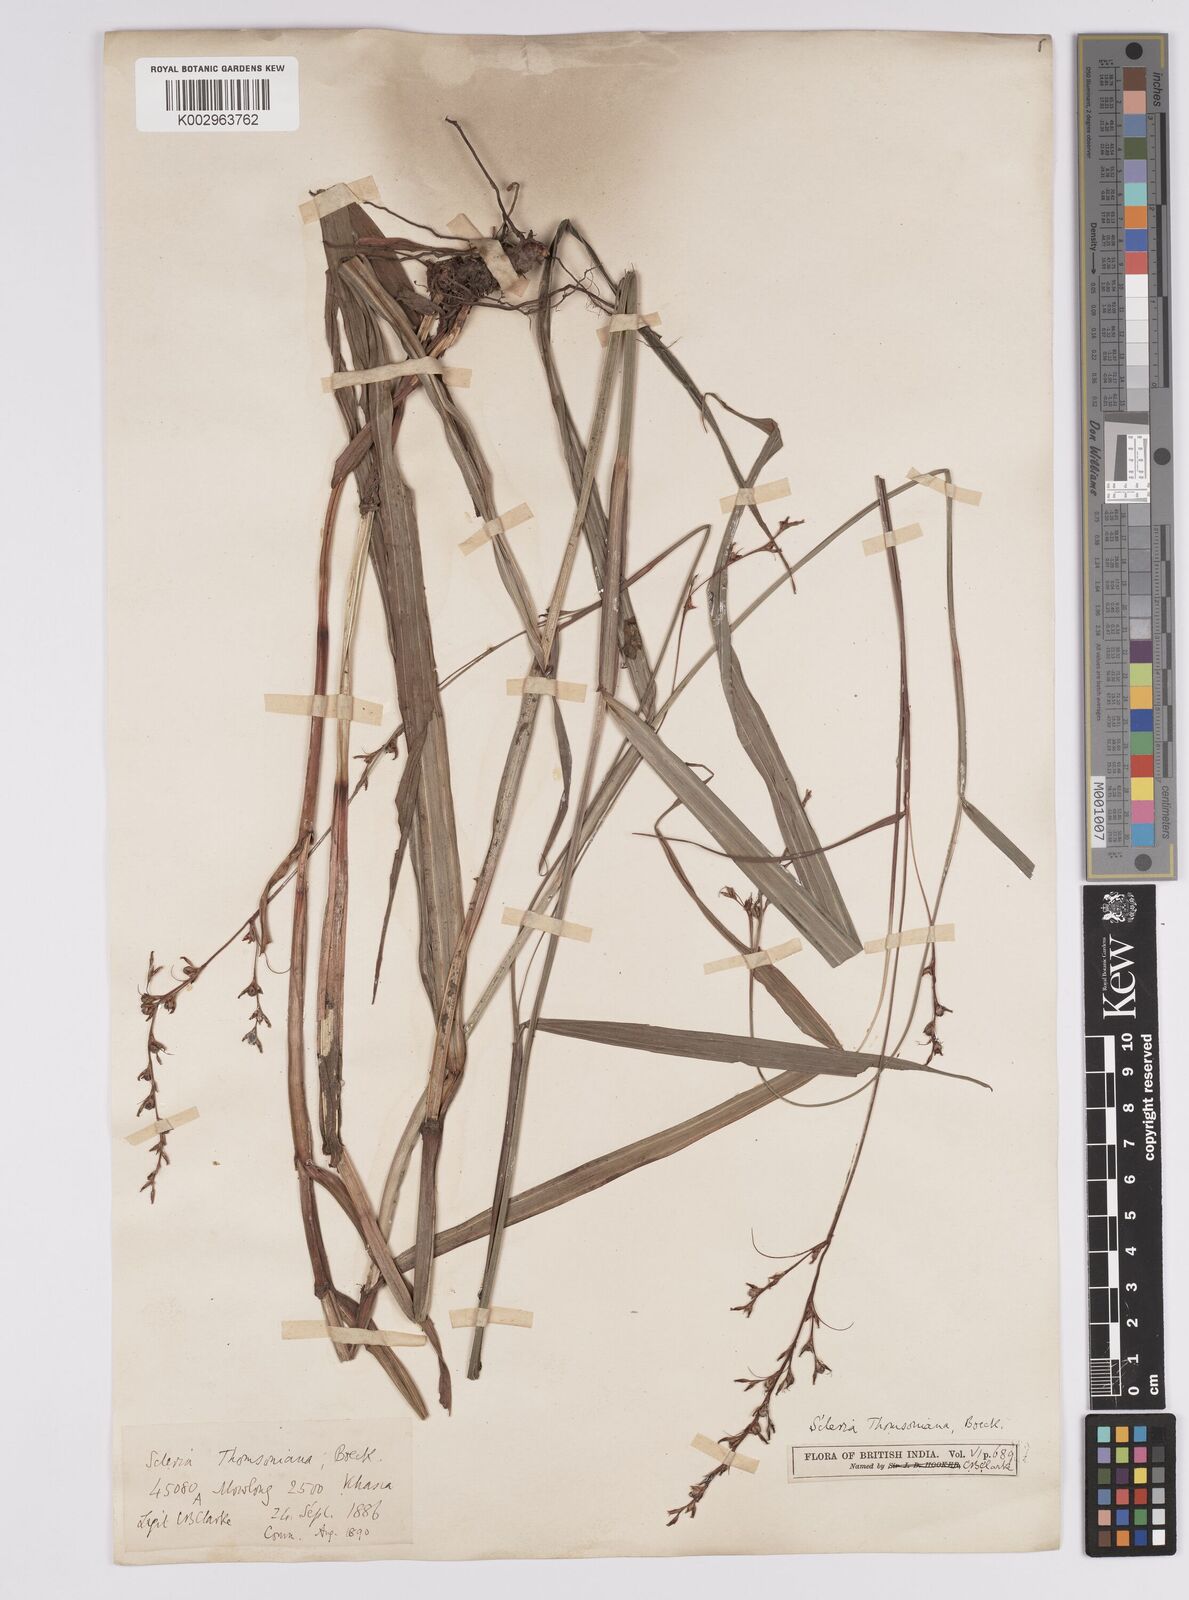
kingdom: Plantae
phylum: Tracheophyta
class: Liliopsida
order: Poales
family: Cyperaceae
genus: Scleria
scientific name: Scleria terrestris
